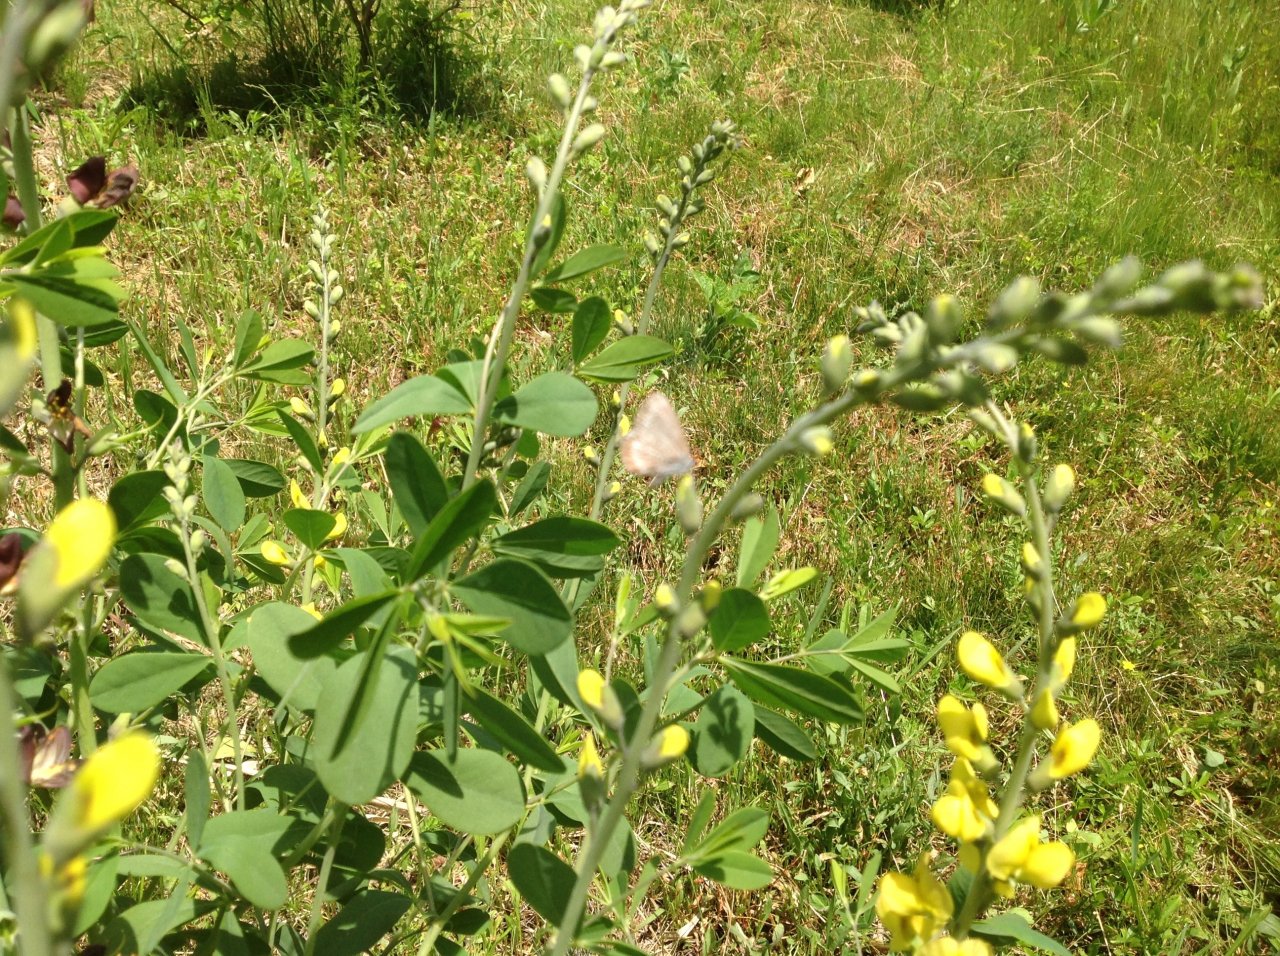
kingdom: Animalia
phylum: Arthropoda
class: Insecta
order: Lepidoptera
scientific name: Lepidoptera
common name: Butterflies
